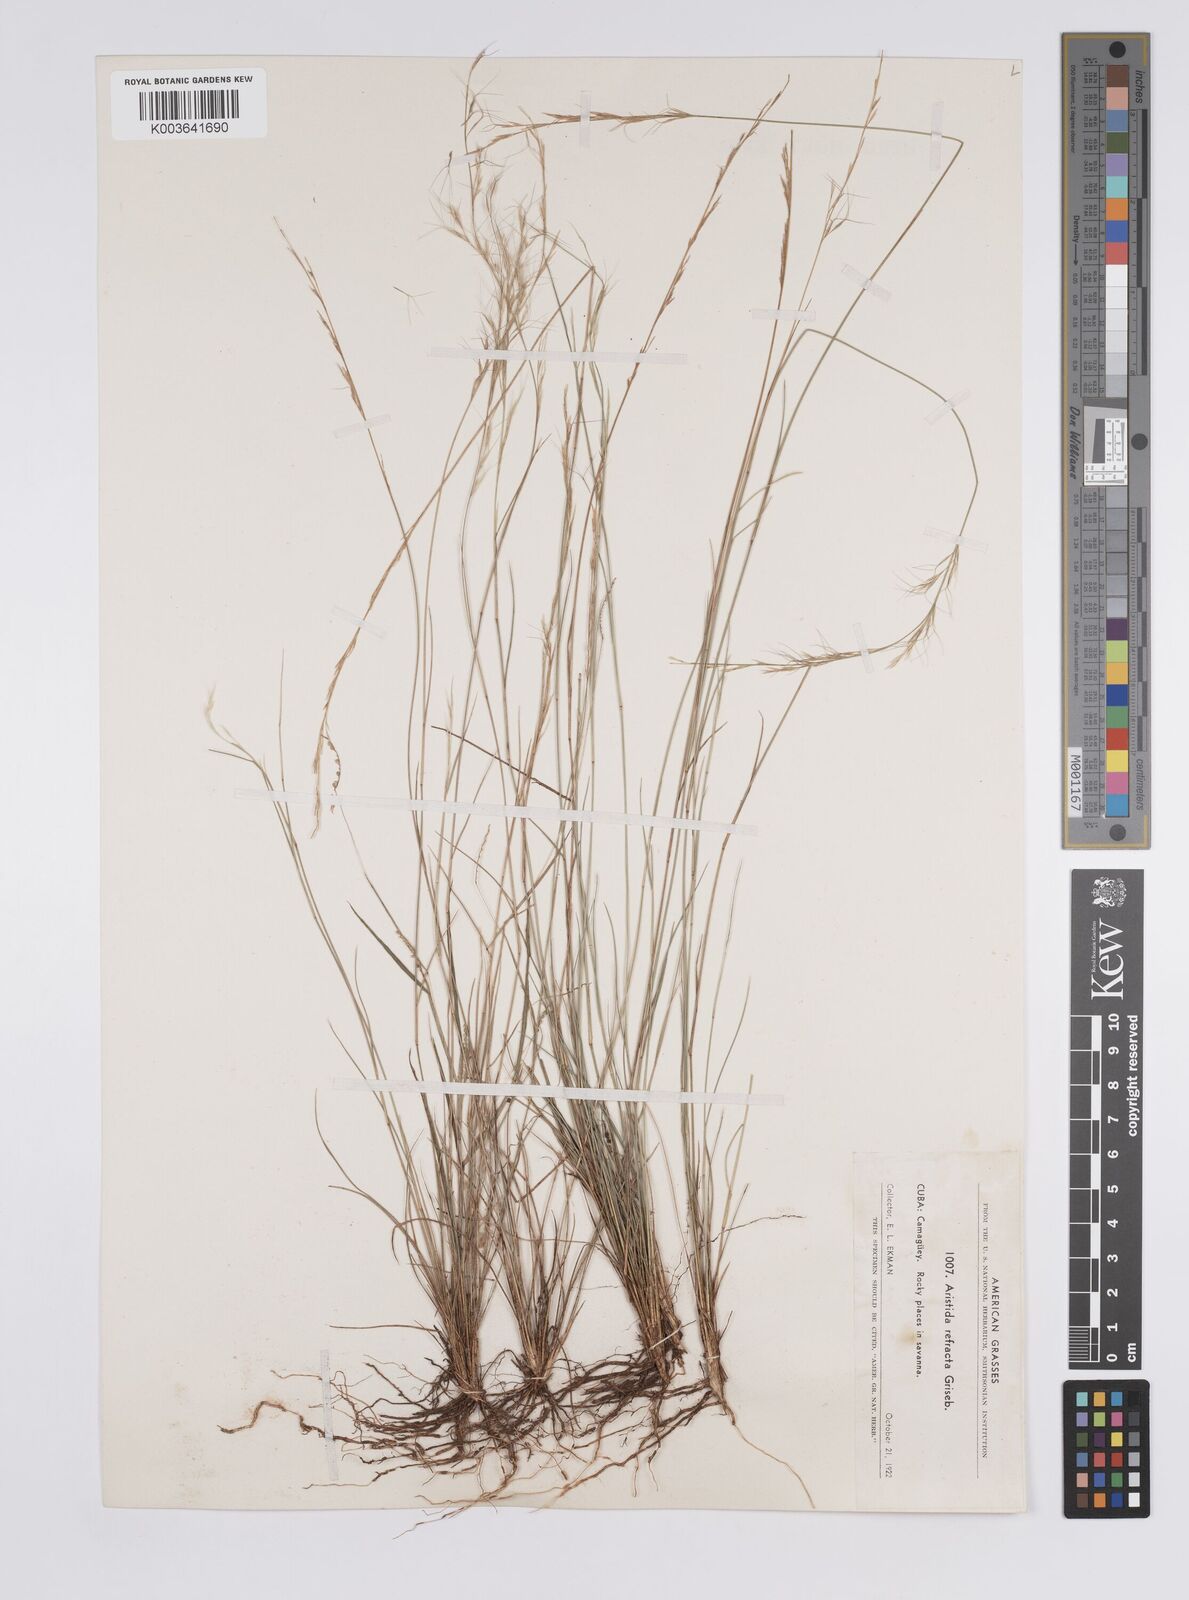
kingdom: Plantae
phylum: Tracheophyta
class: Liliopsida
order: Poales
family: Poaceae
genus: Aristida
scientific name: Aristida refracta
